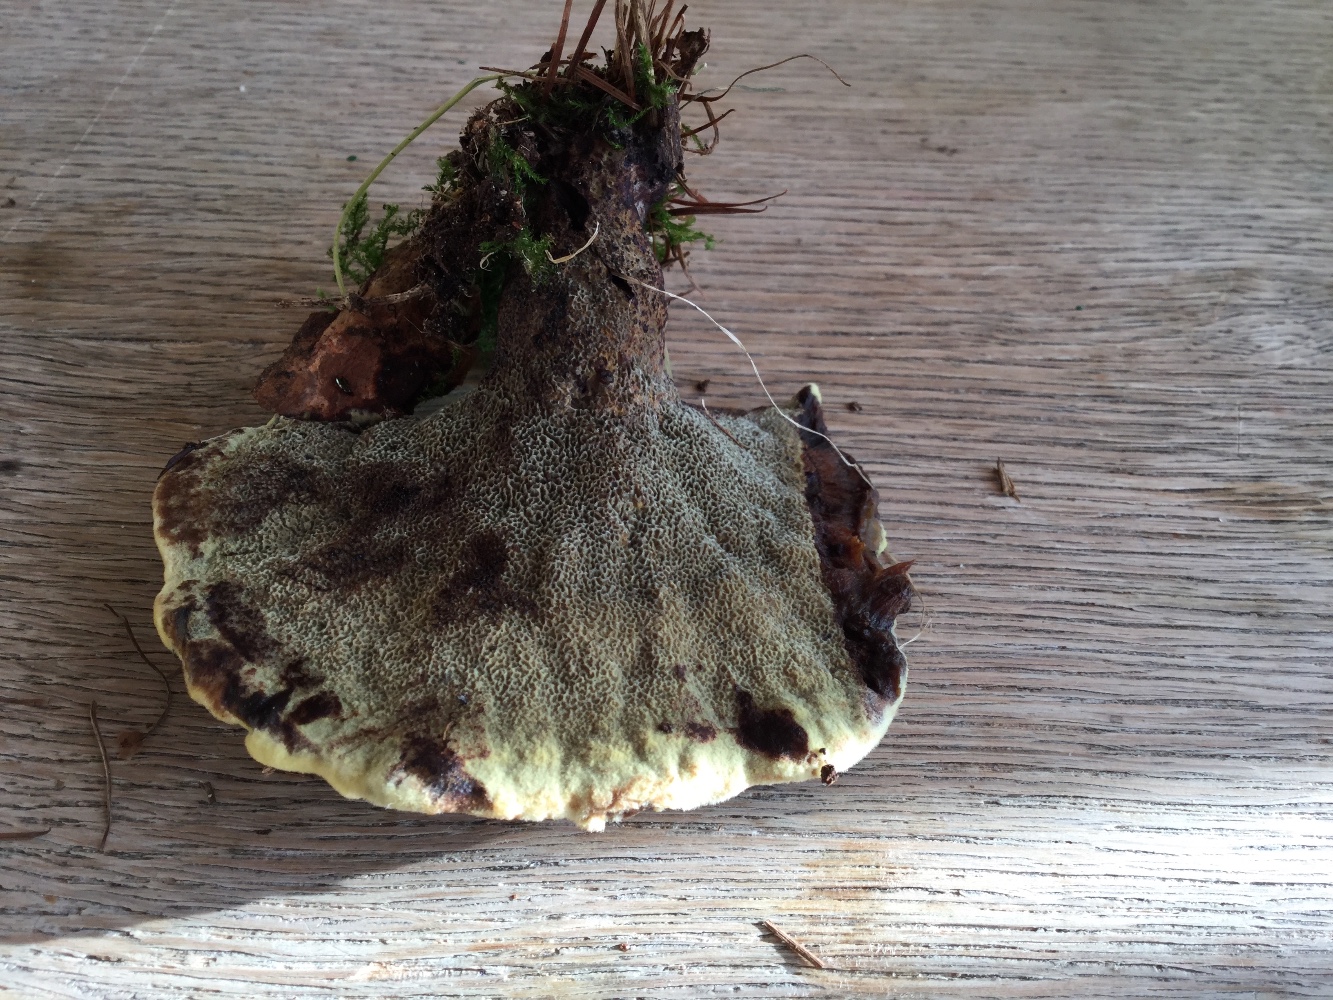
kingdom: Fungi
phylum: Basidiomycota
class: Agaricomycetes
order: Polyporales
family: Laetiporaceae
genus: Phaeolus
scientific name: Phaeolus schweinitzii
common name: brunporesvamp
